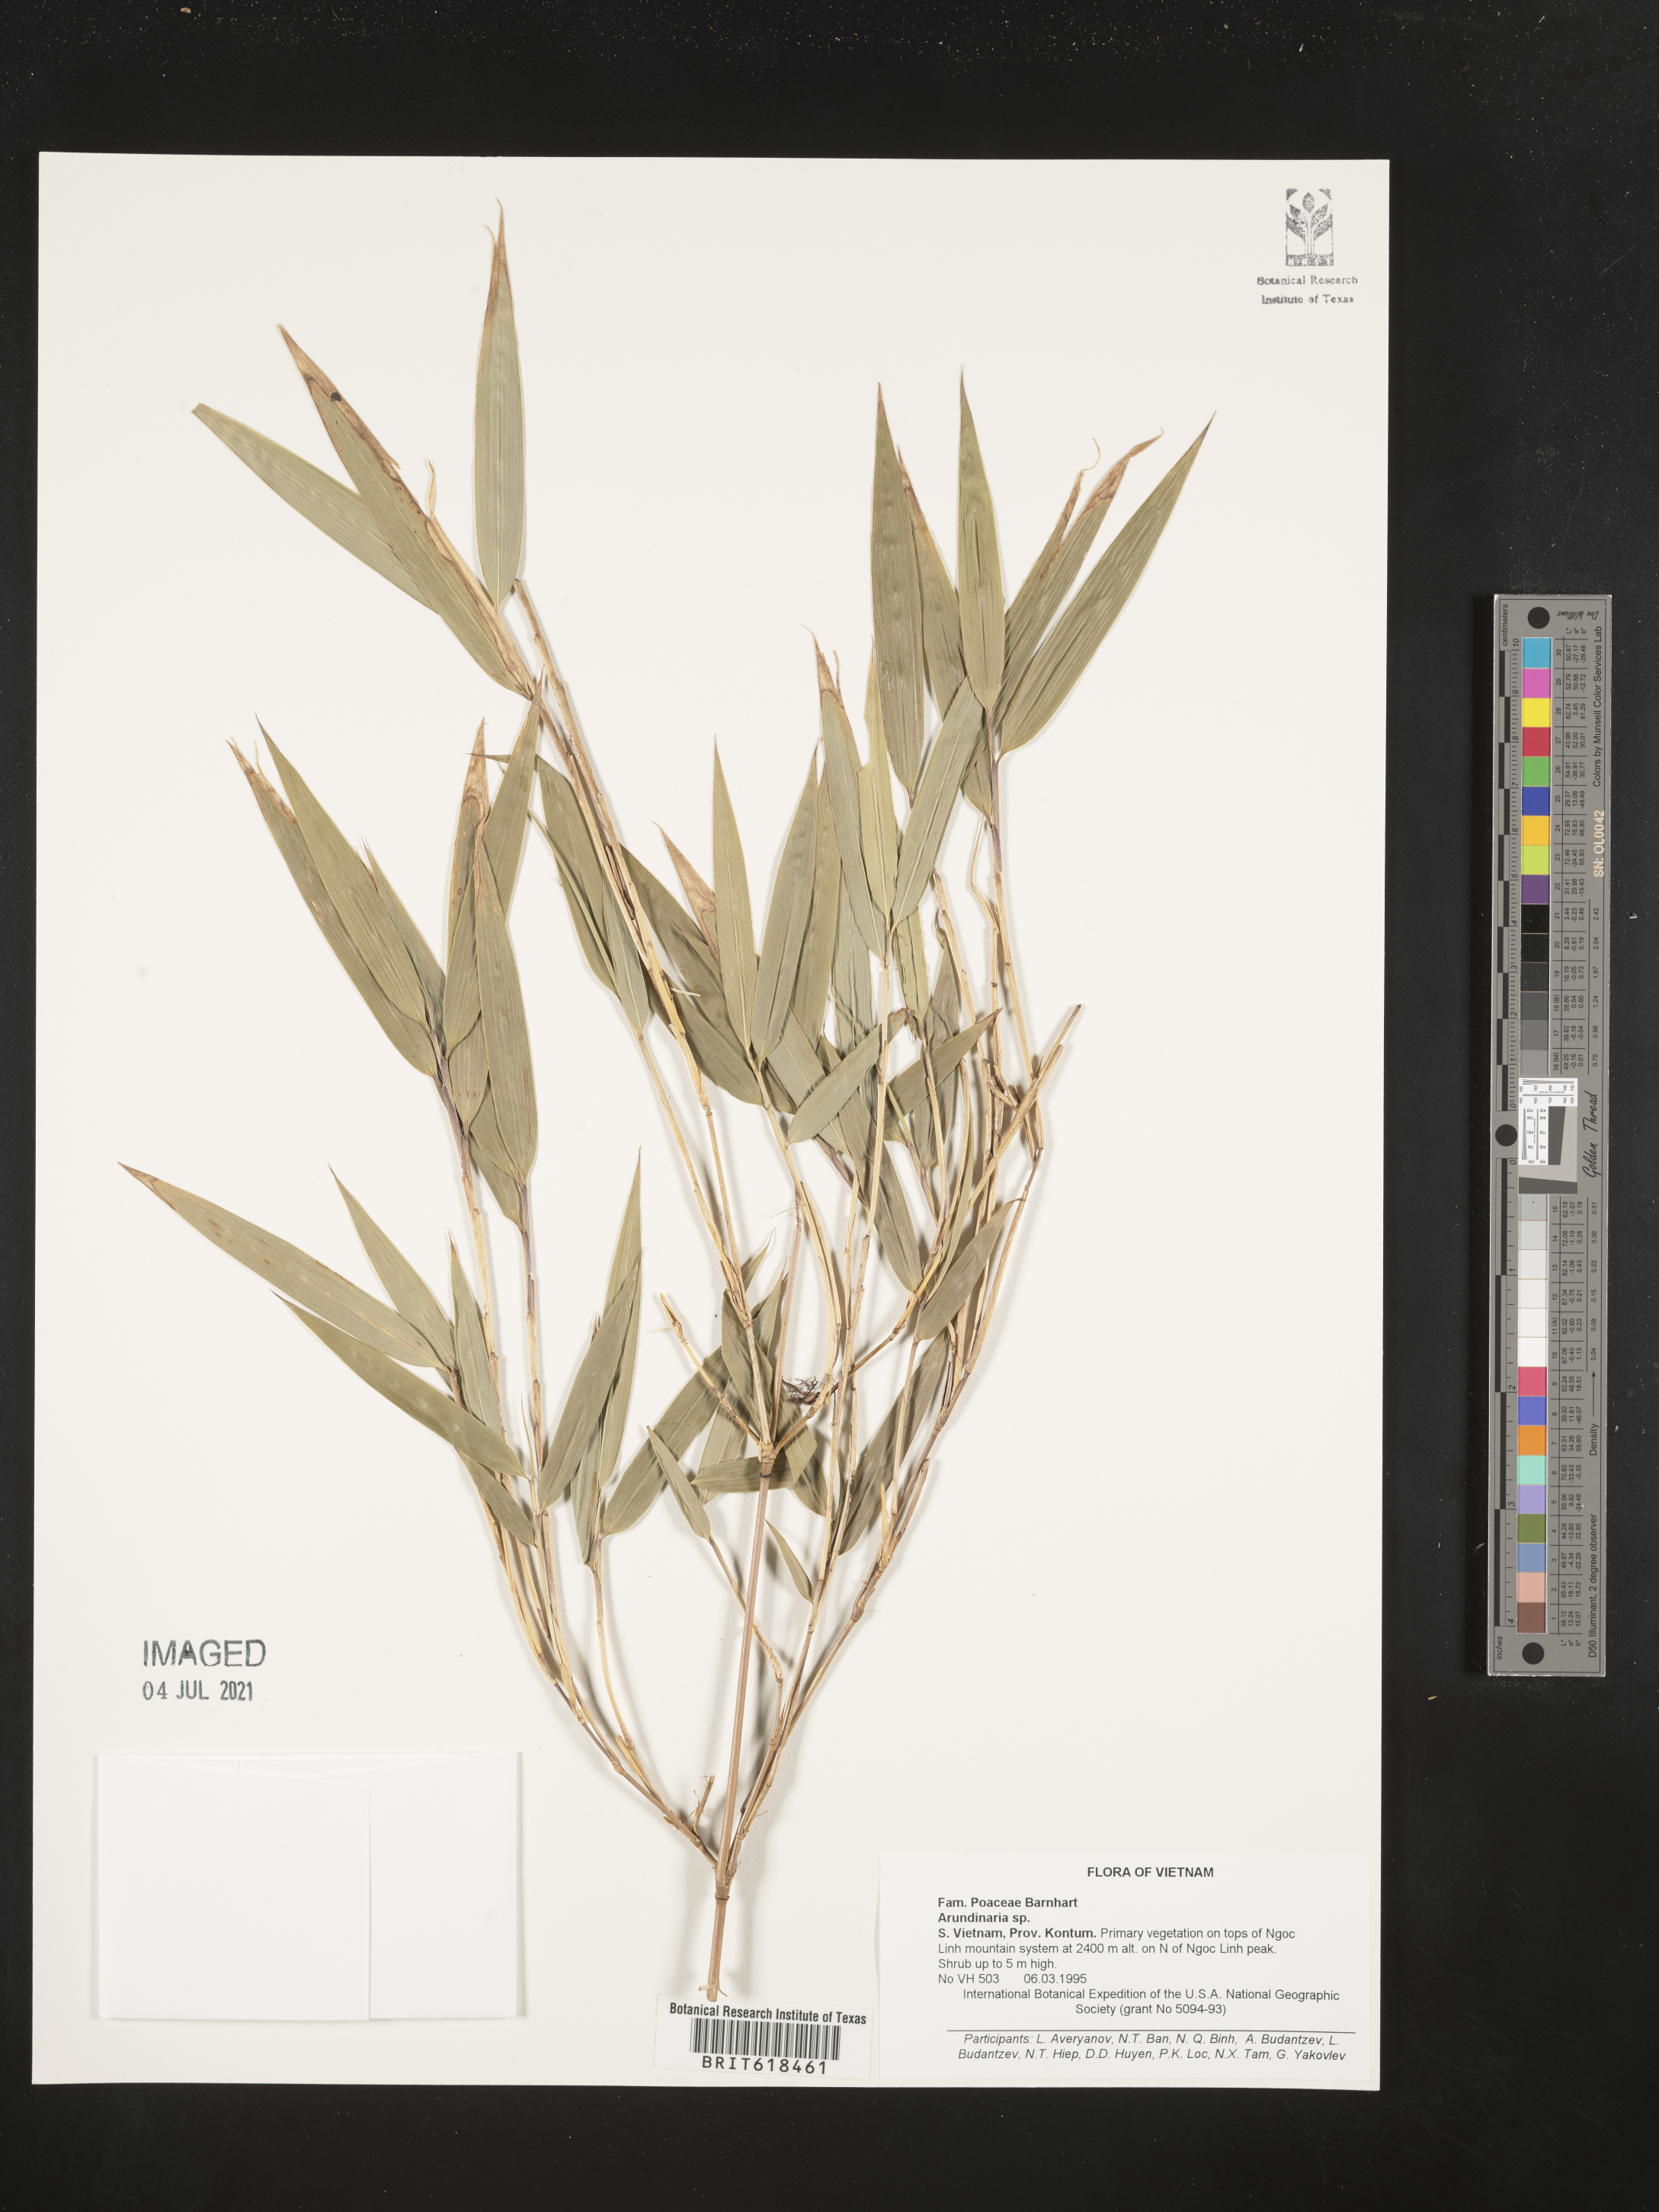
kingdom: Plantae
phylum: Tracheophyta
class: Liliopsida
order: Poales
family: Poaceae
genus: Arundinaria
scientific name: Arundinaria
